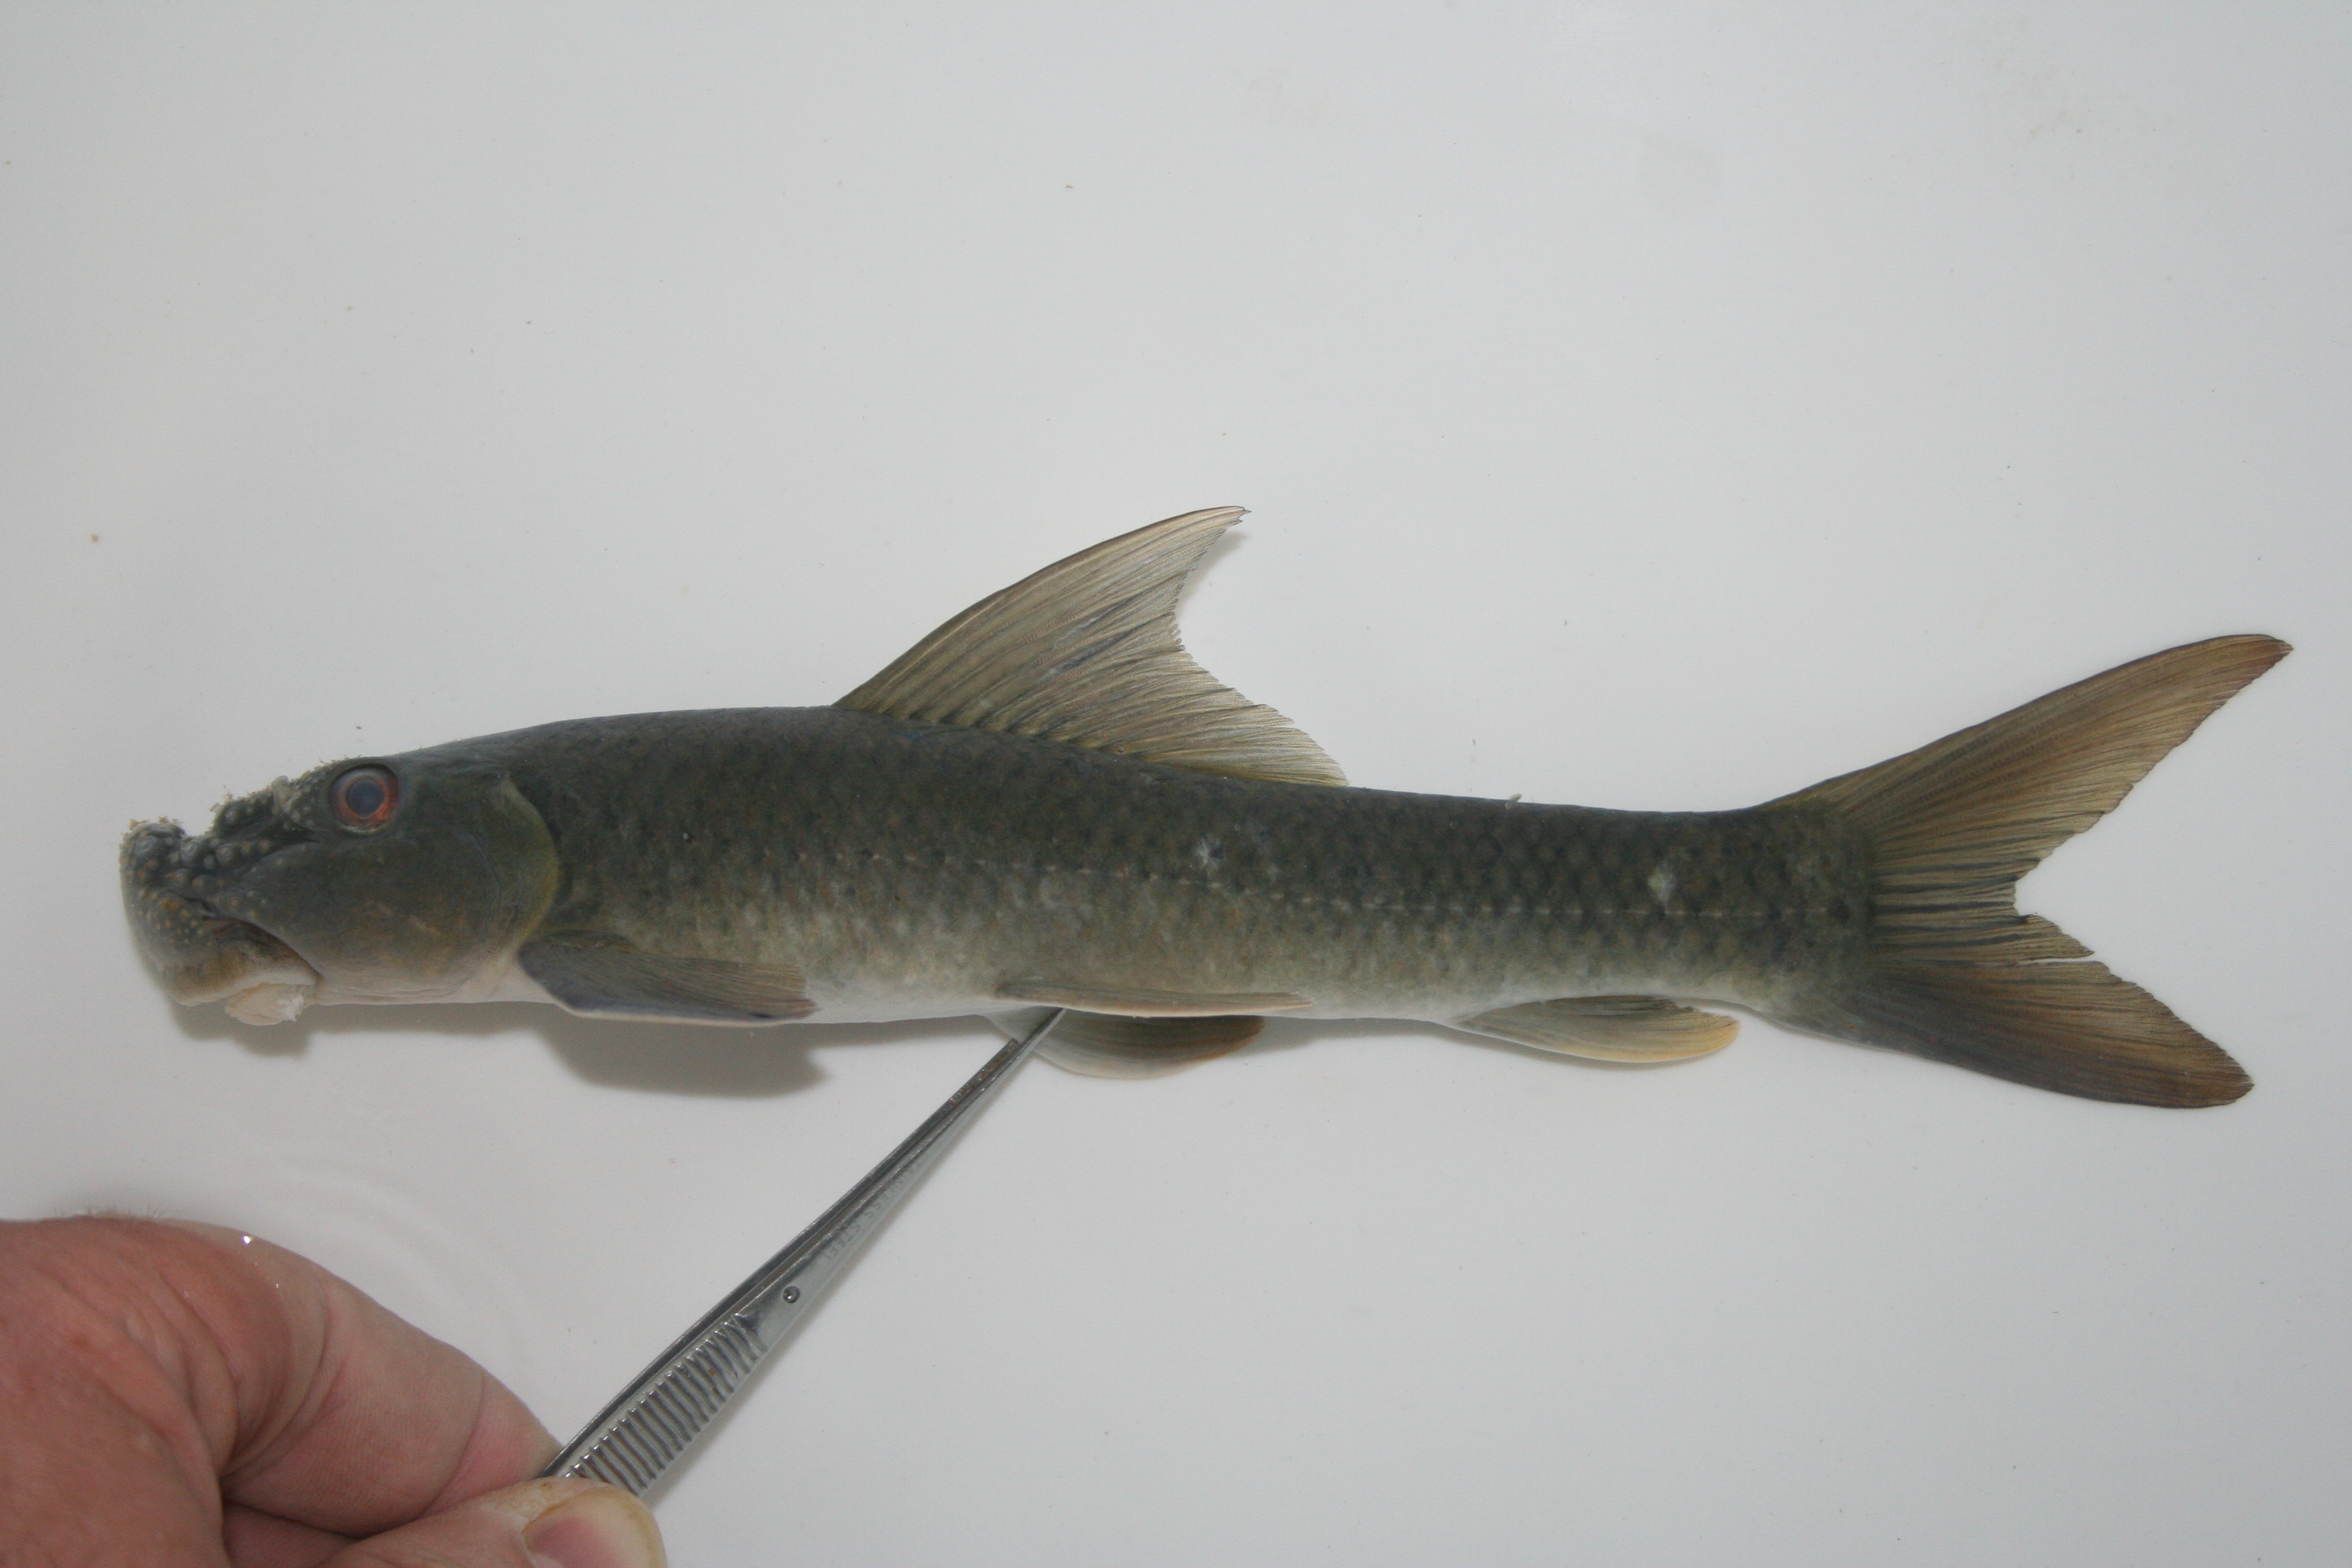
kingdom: Animalia
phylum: Chordata
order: Cypriniformes
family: Cyprinidae
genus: Labeo
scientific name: Labeo
